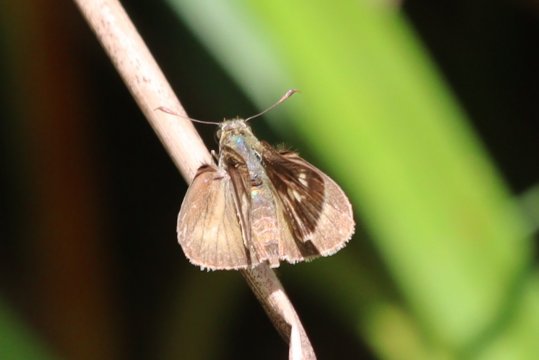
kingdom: Animalia
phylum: Arthropoda
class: Insecta
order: Lepidoptera
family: Hesperiidae
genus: Vernia
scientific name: Vernia verna
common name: Little Glassywing
